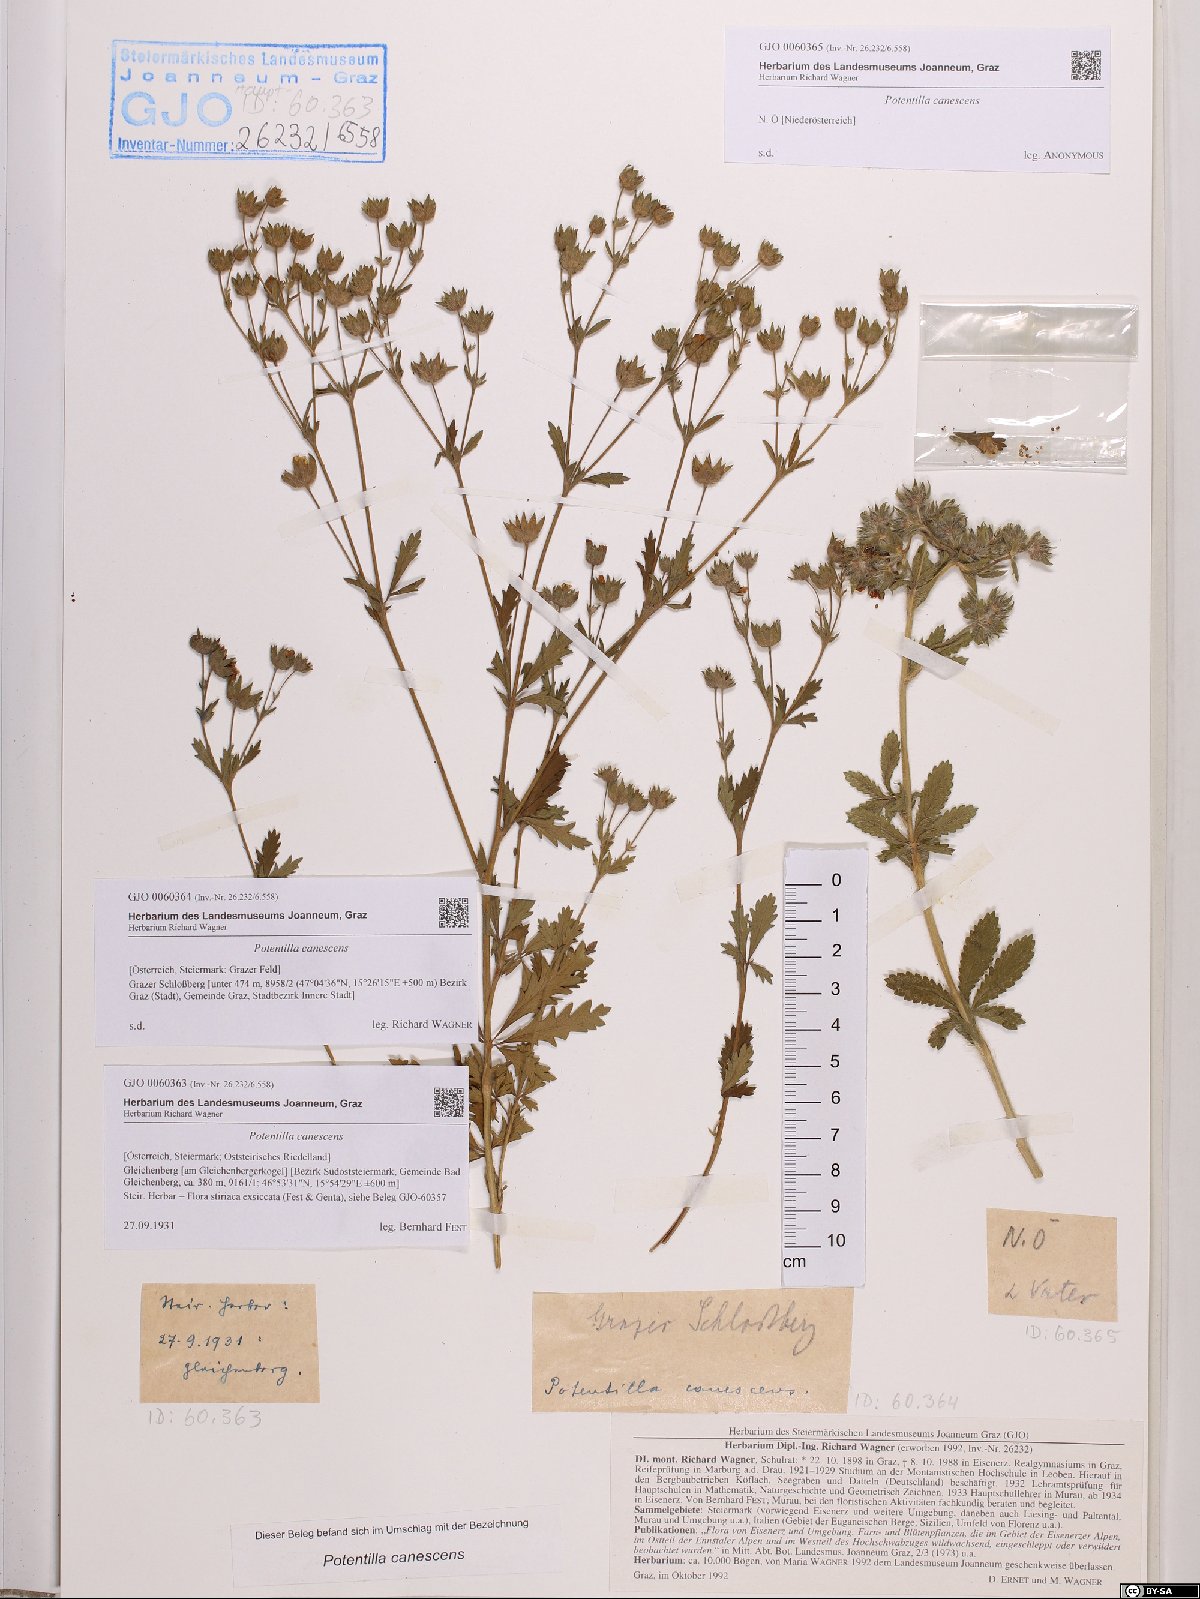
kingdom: Plantae
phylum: Tracheophyta
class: Magnoliopsida
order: Rosales
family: Rosaceae
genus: Potentilla
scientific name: Potentilla inclinata
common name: Grey cinquefoil
